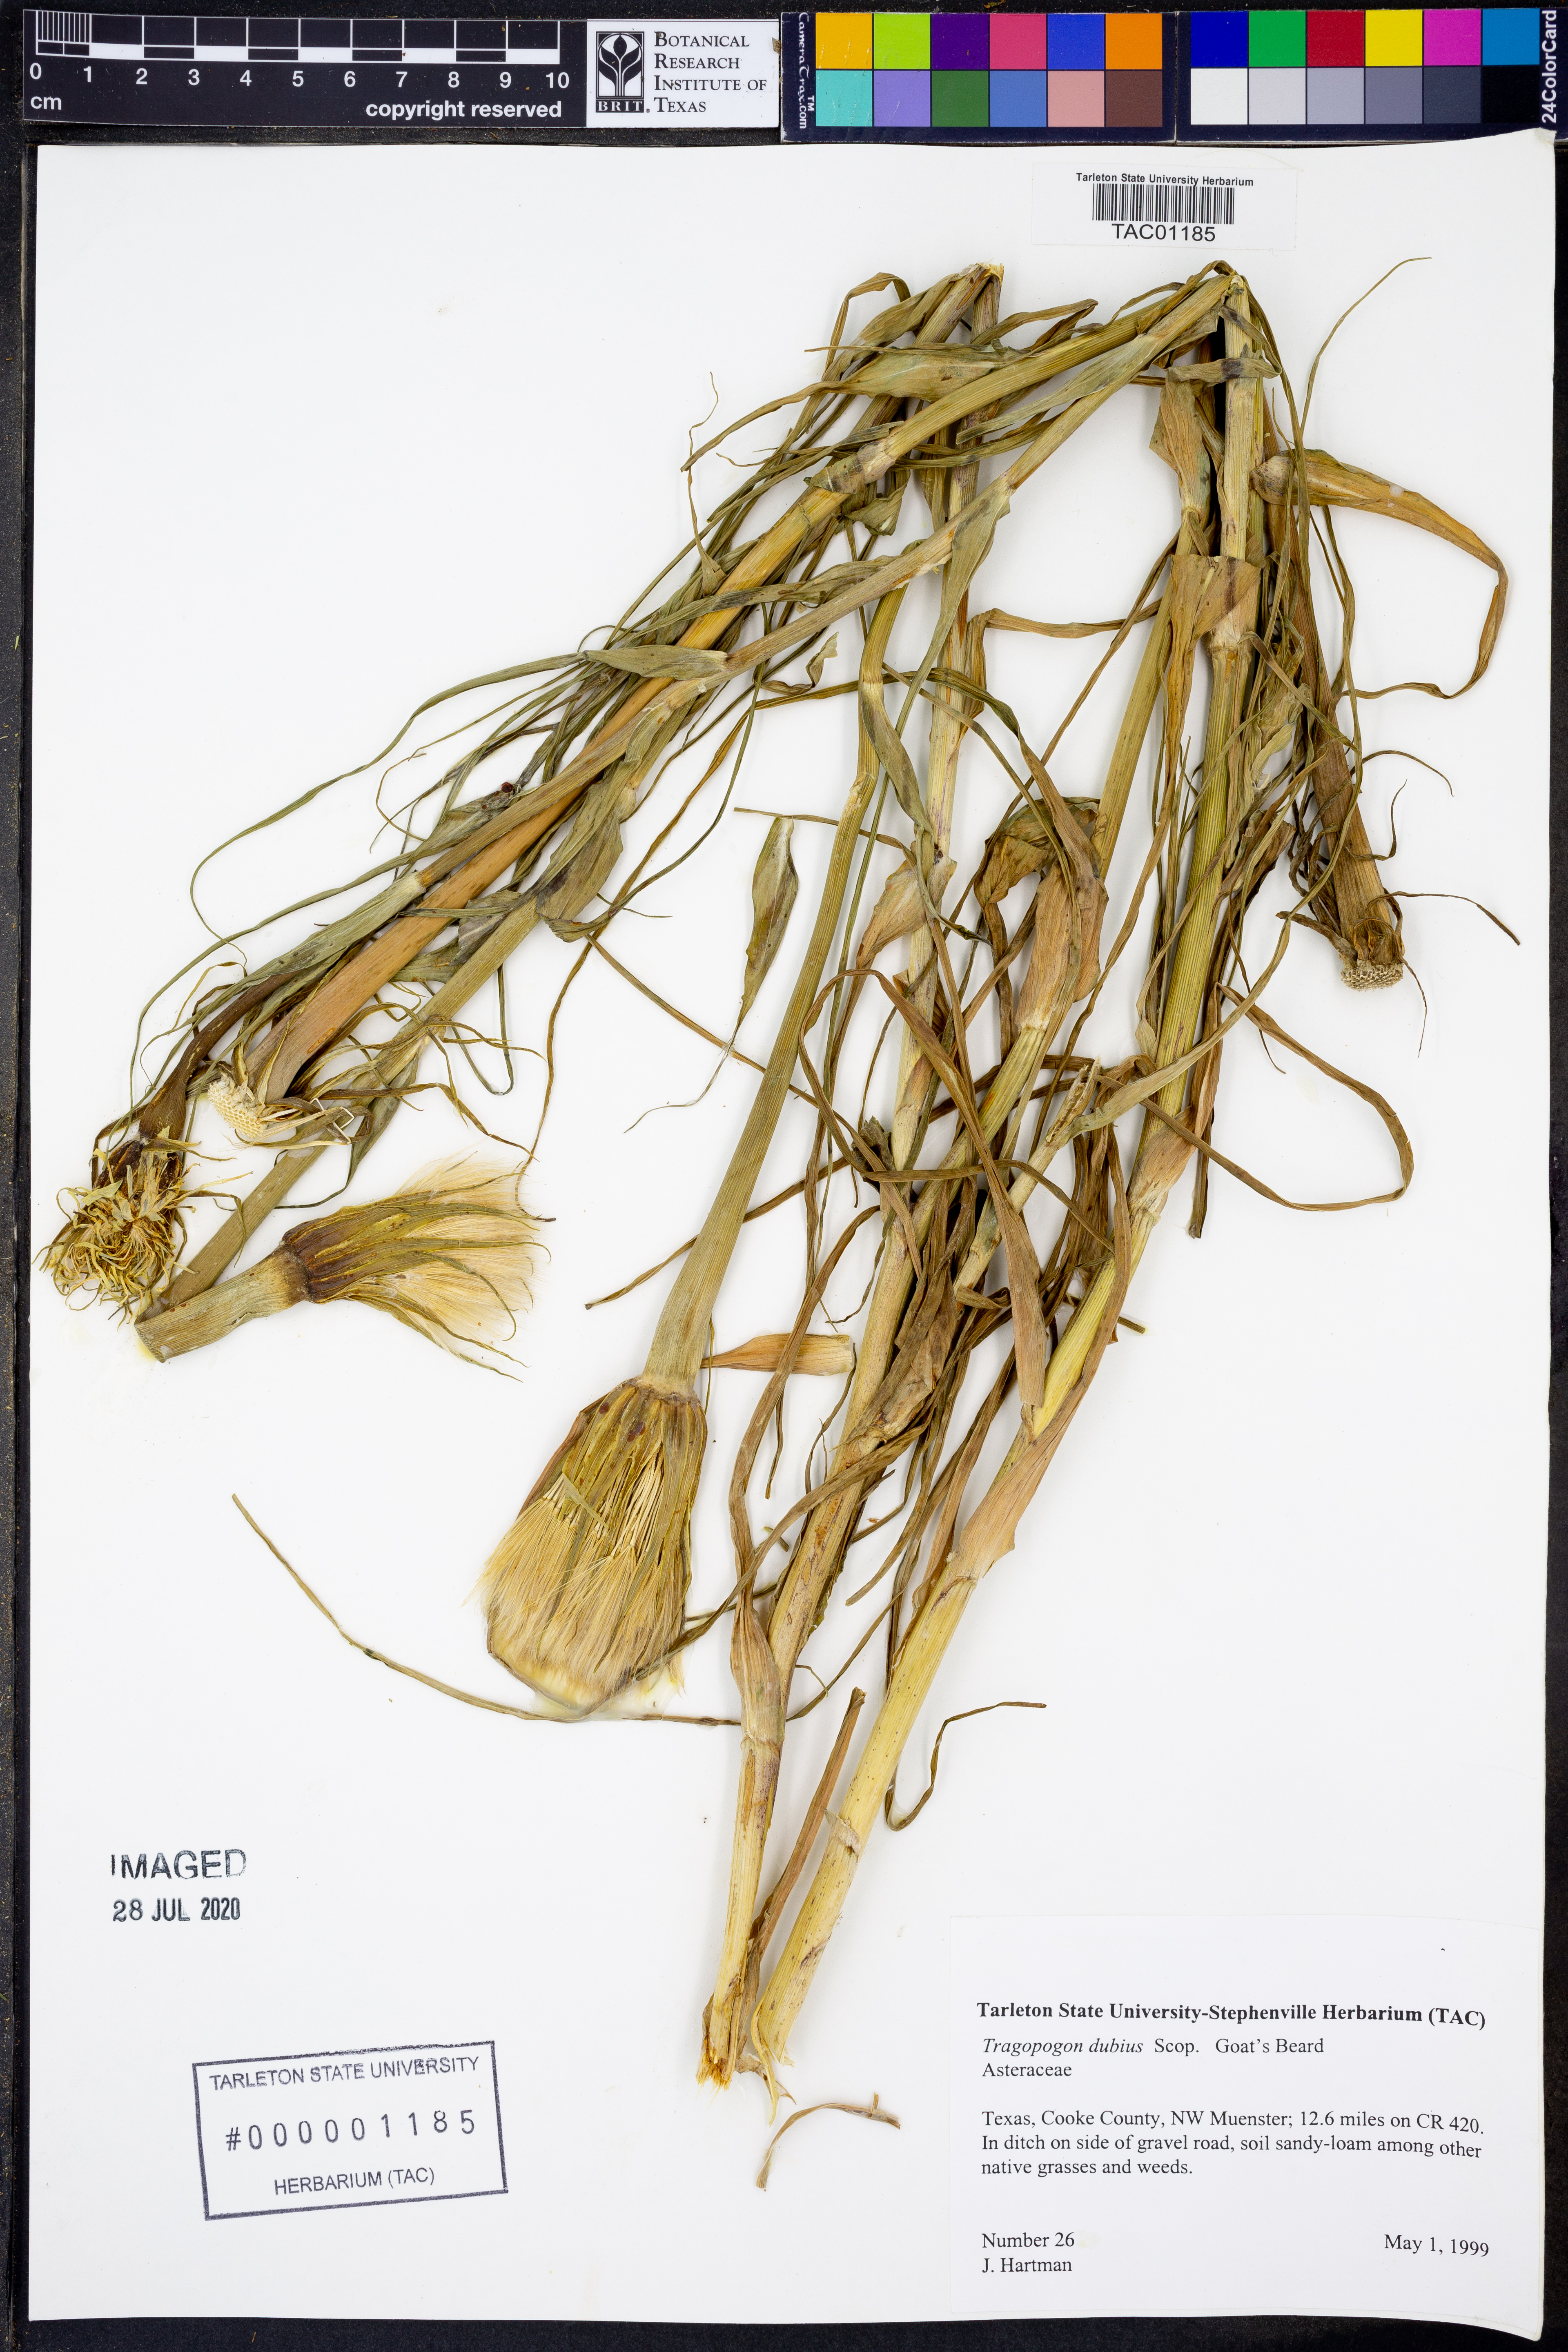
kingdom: Plantae
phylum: Tracheophyta
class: Magnoliopsida
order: Asterales
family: Asteraceae
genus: Tragopogon
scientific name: Tragopogon dubius
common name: Yellow salsify
